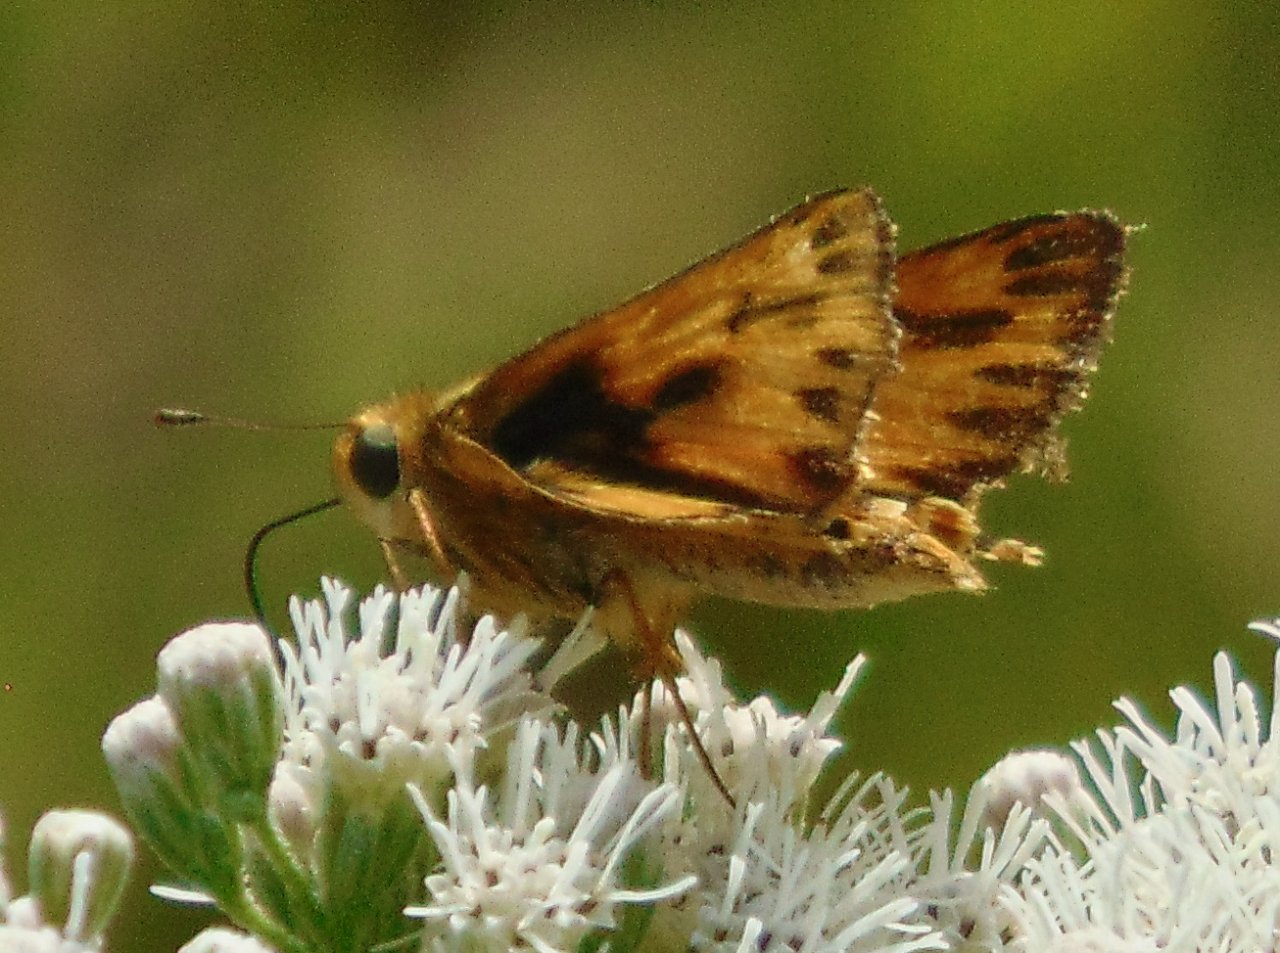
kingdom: Animalia
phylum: Arthropoda
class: Insecta
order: Lepidoptera
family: Hesperiidae
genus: Hylephila
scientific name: Hylephila phyleus
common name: Fiery Skipper
